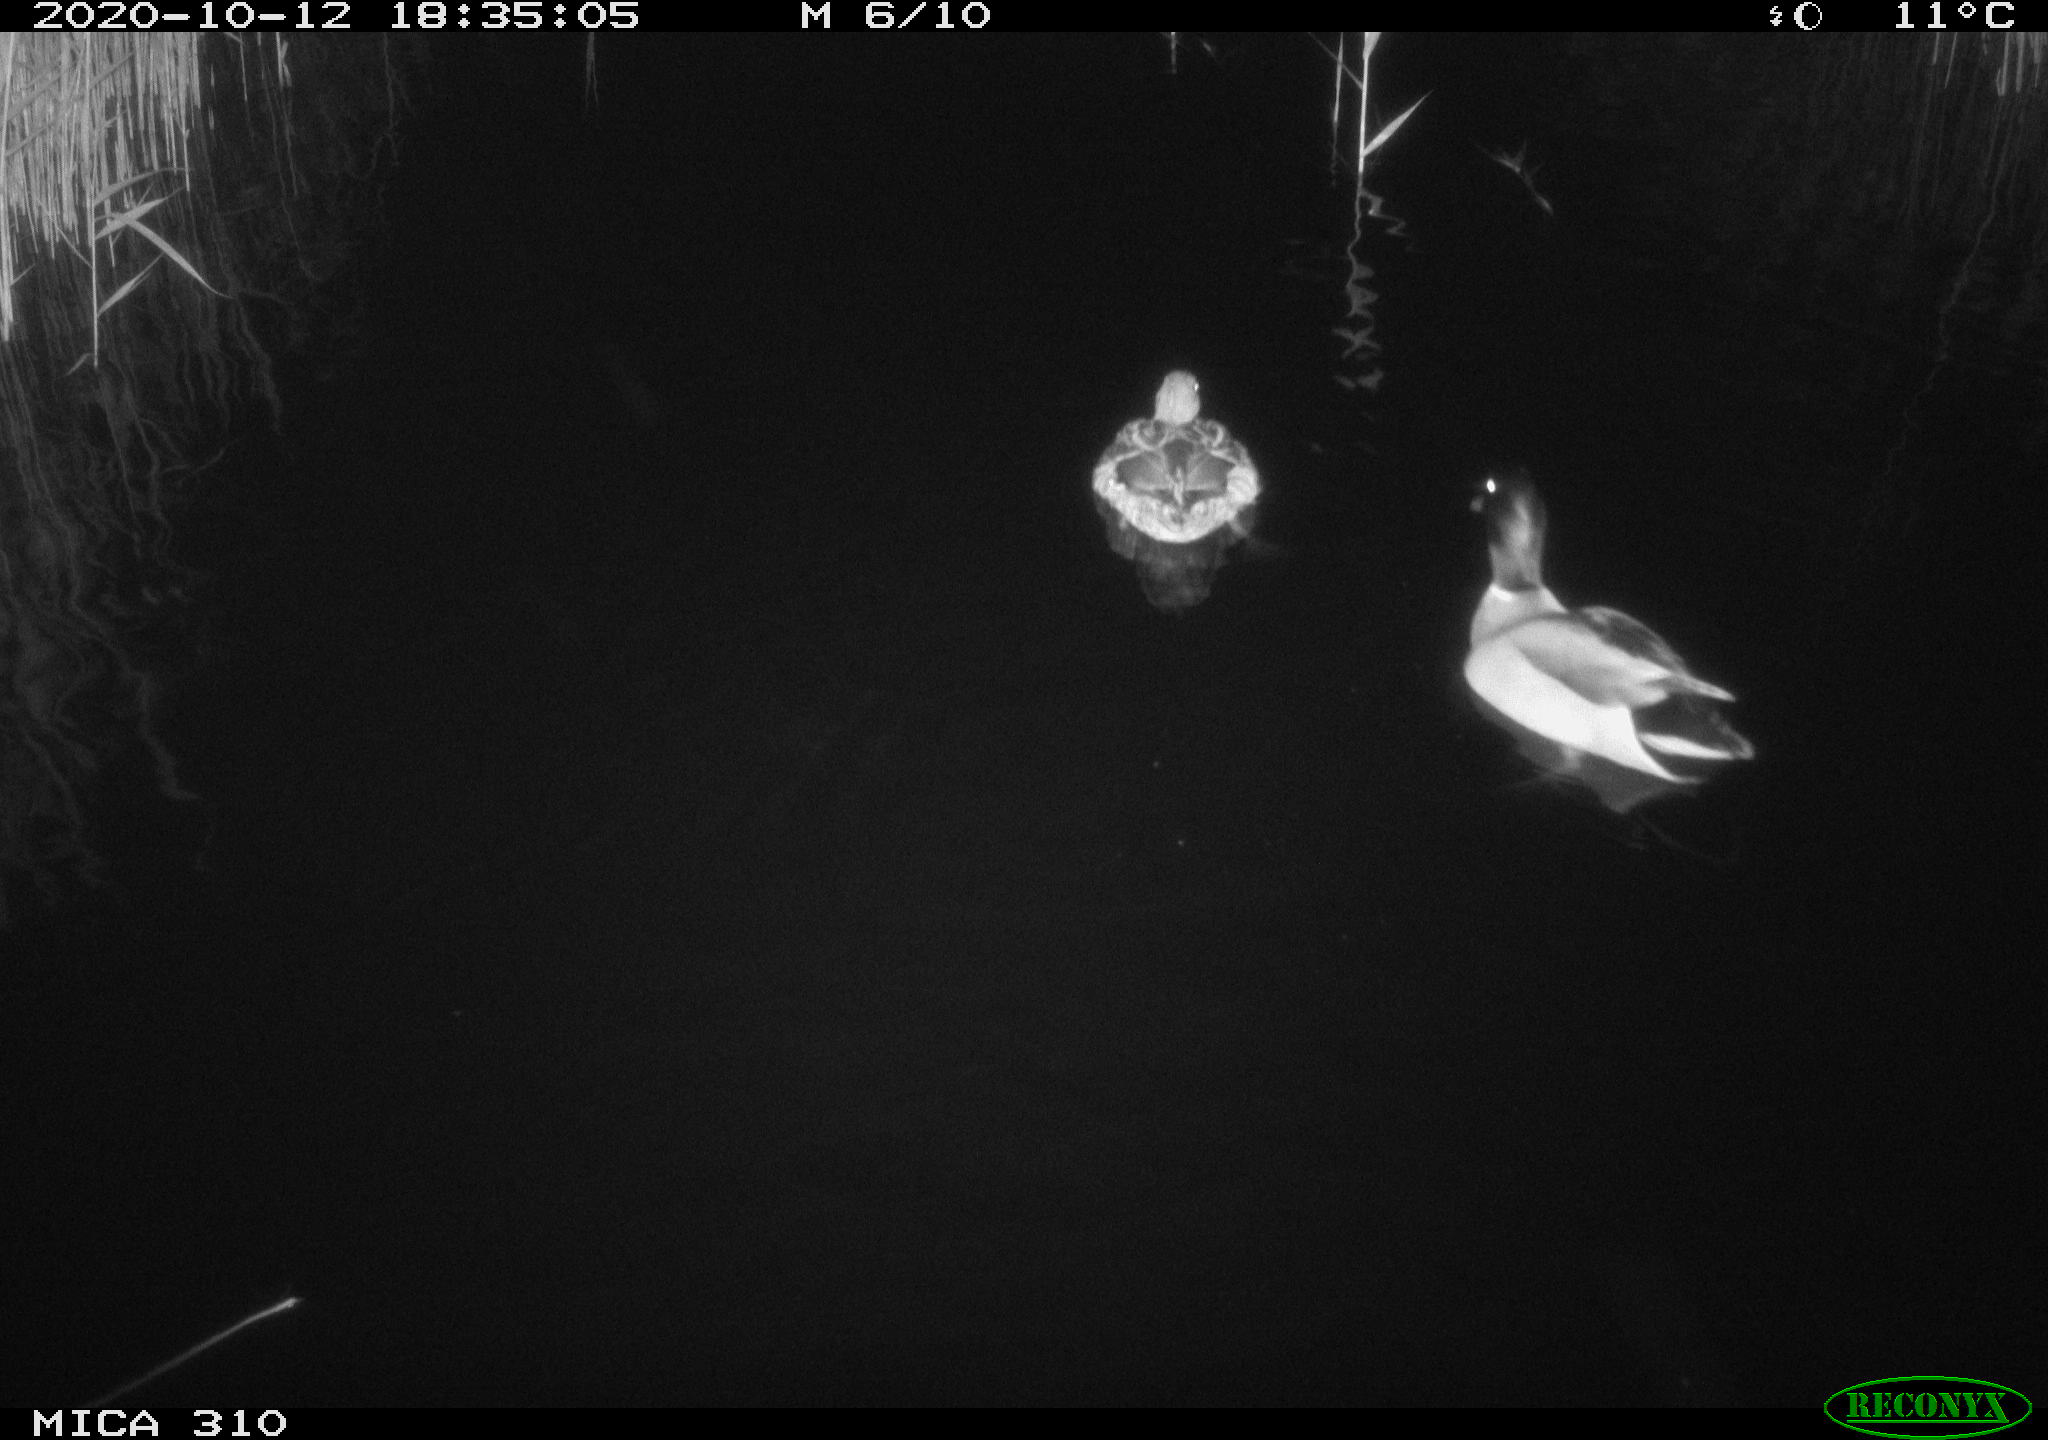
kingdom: Animalia
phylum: Chordata
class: Aves
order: Anseriformes
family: Anatidae
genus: Anas
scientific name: Anas platyrhynchos
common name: Mallard
